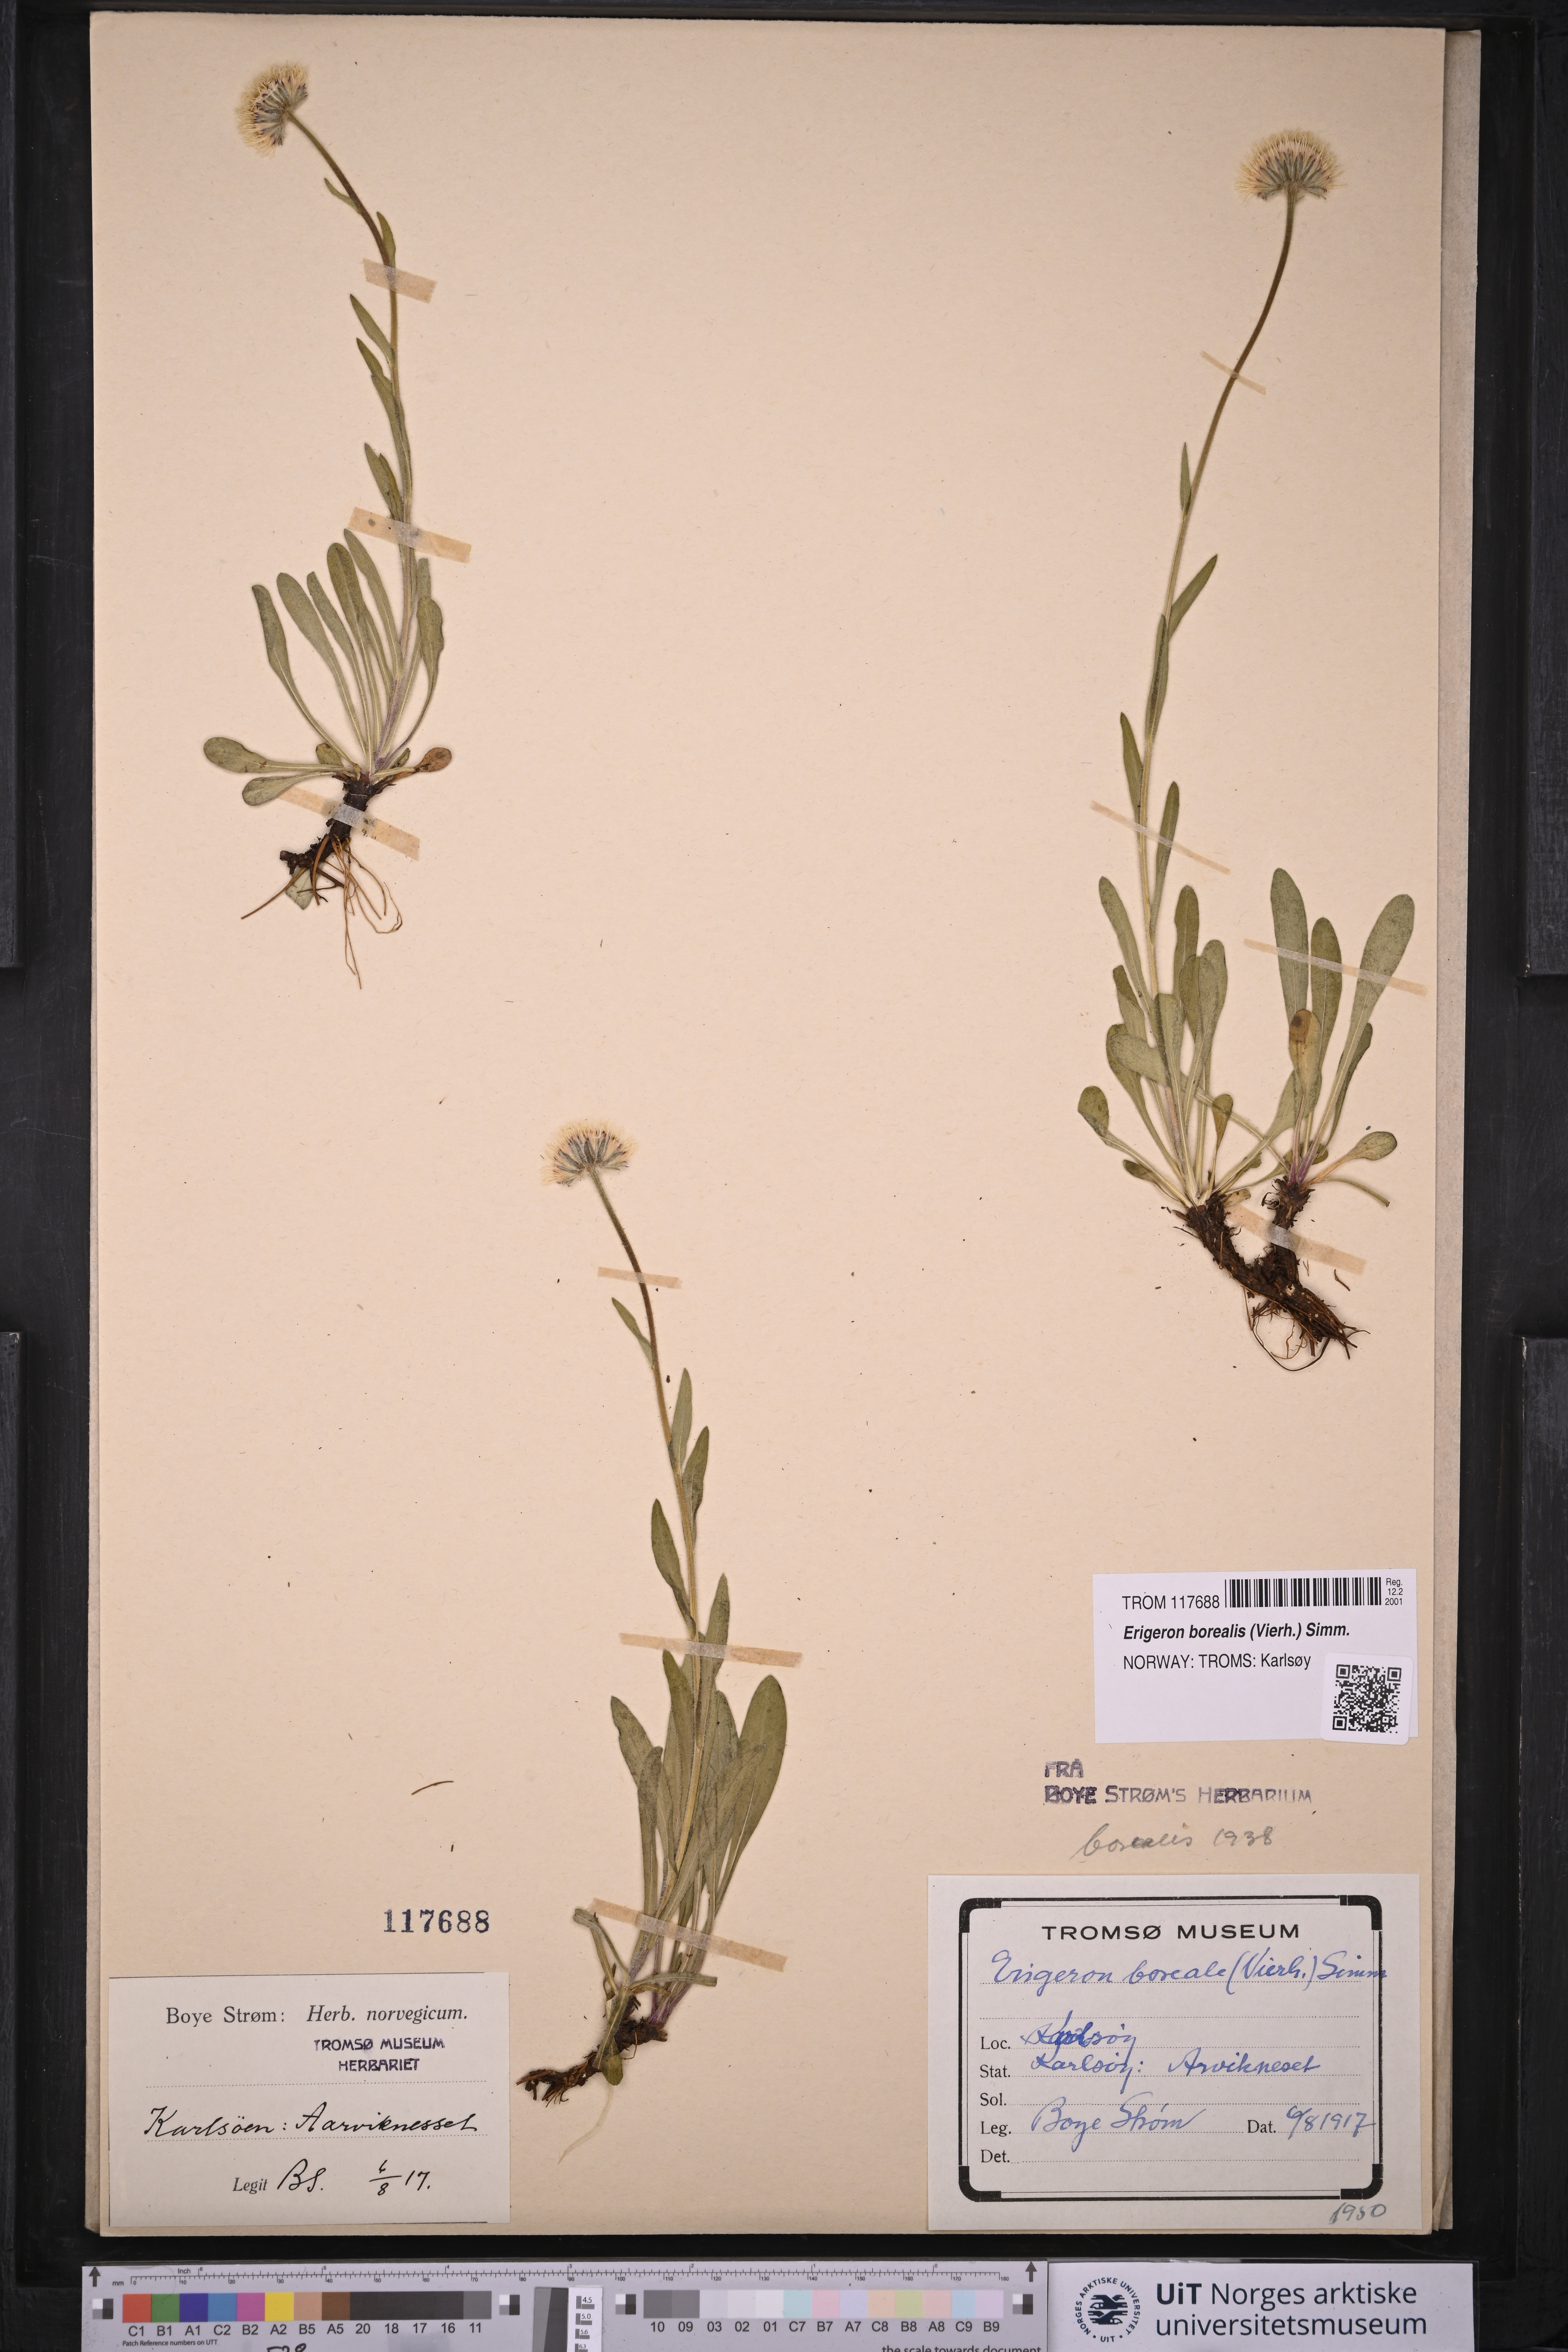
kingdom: Plantae
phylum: Tracheophyta
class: Magnoliopsida
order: Asterales
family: Asteraceae
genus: Erigeron
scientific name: Erigeron borealis
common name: Alpine fleabane
